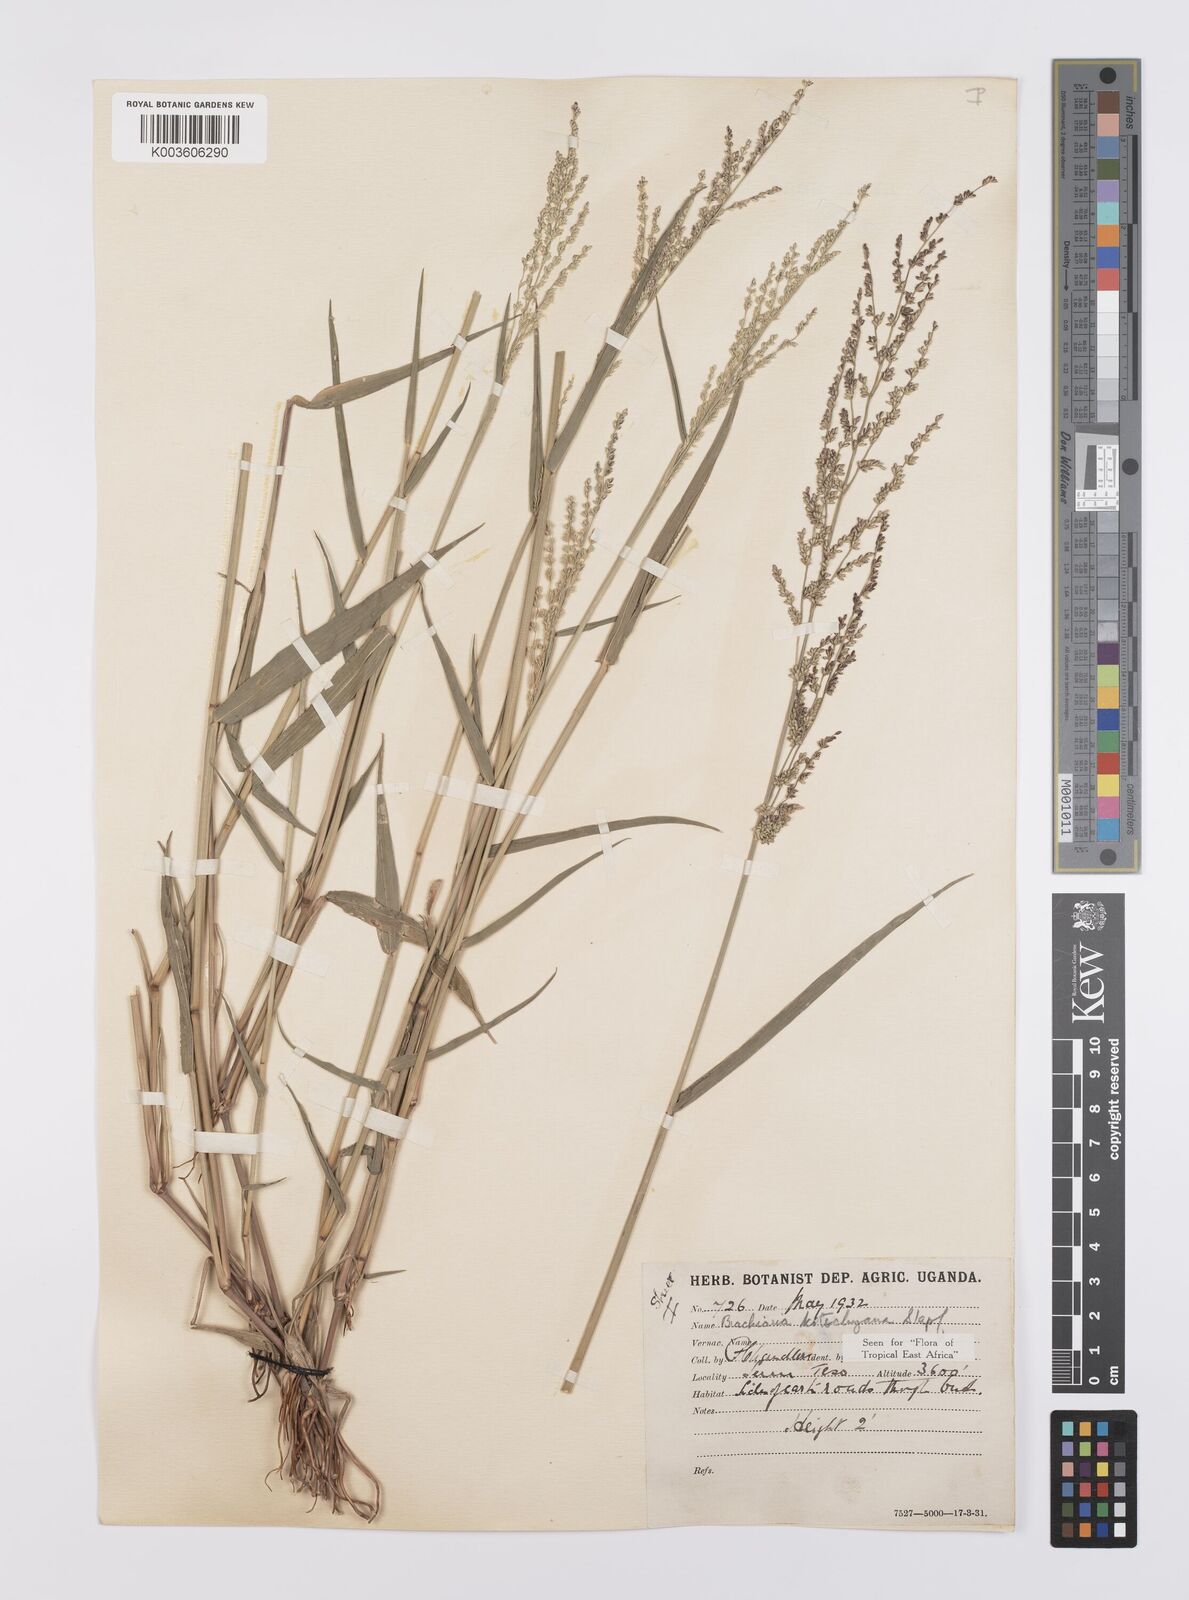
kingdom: Plantae
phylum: Tracheophyta
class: Liliopsida
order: Poales
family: Poaceae
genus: Urochloa
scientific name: Urochloa comata
